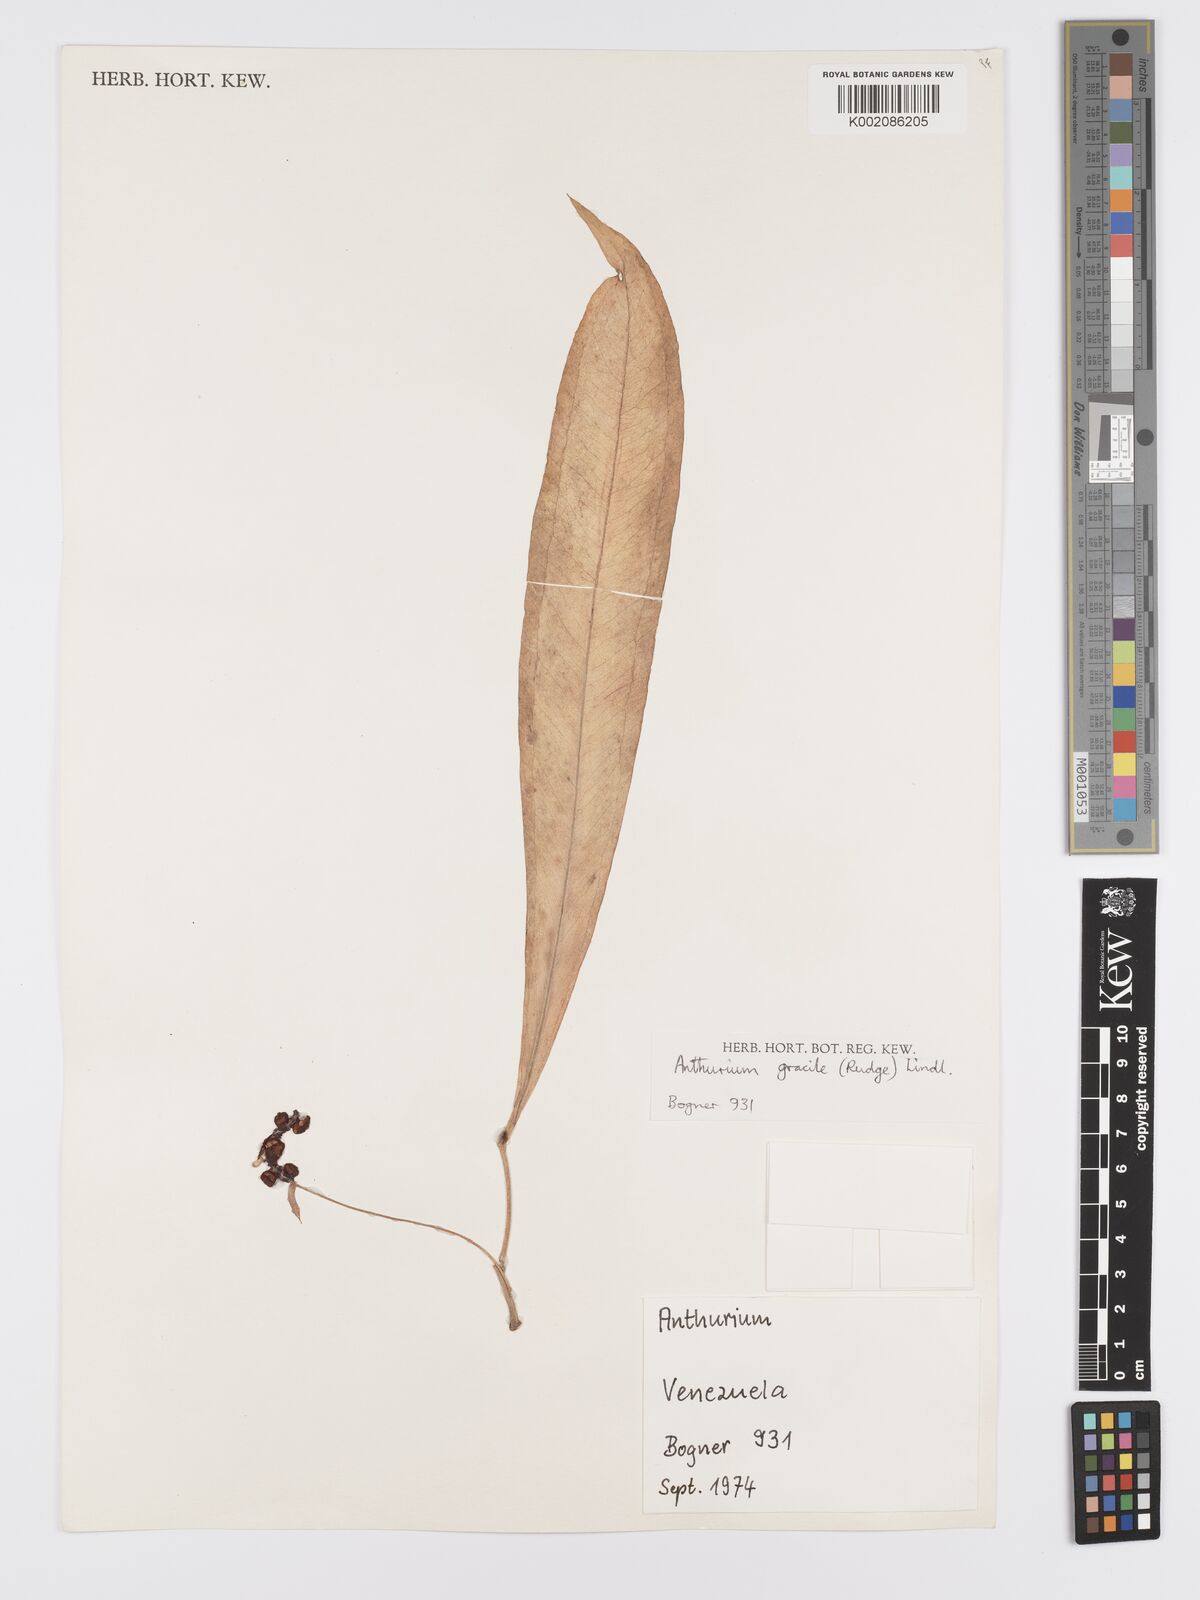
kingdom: Plantae
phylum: Tracheophyta
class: Liliopsida
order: Alismatales
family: Araceae
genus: Anthurium
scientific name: Anthurium gracile
